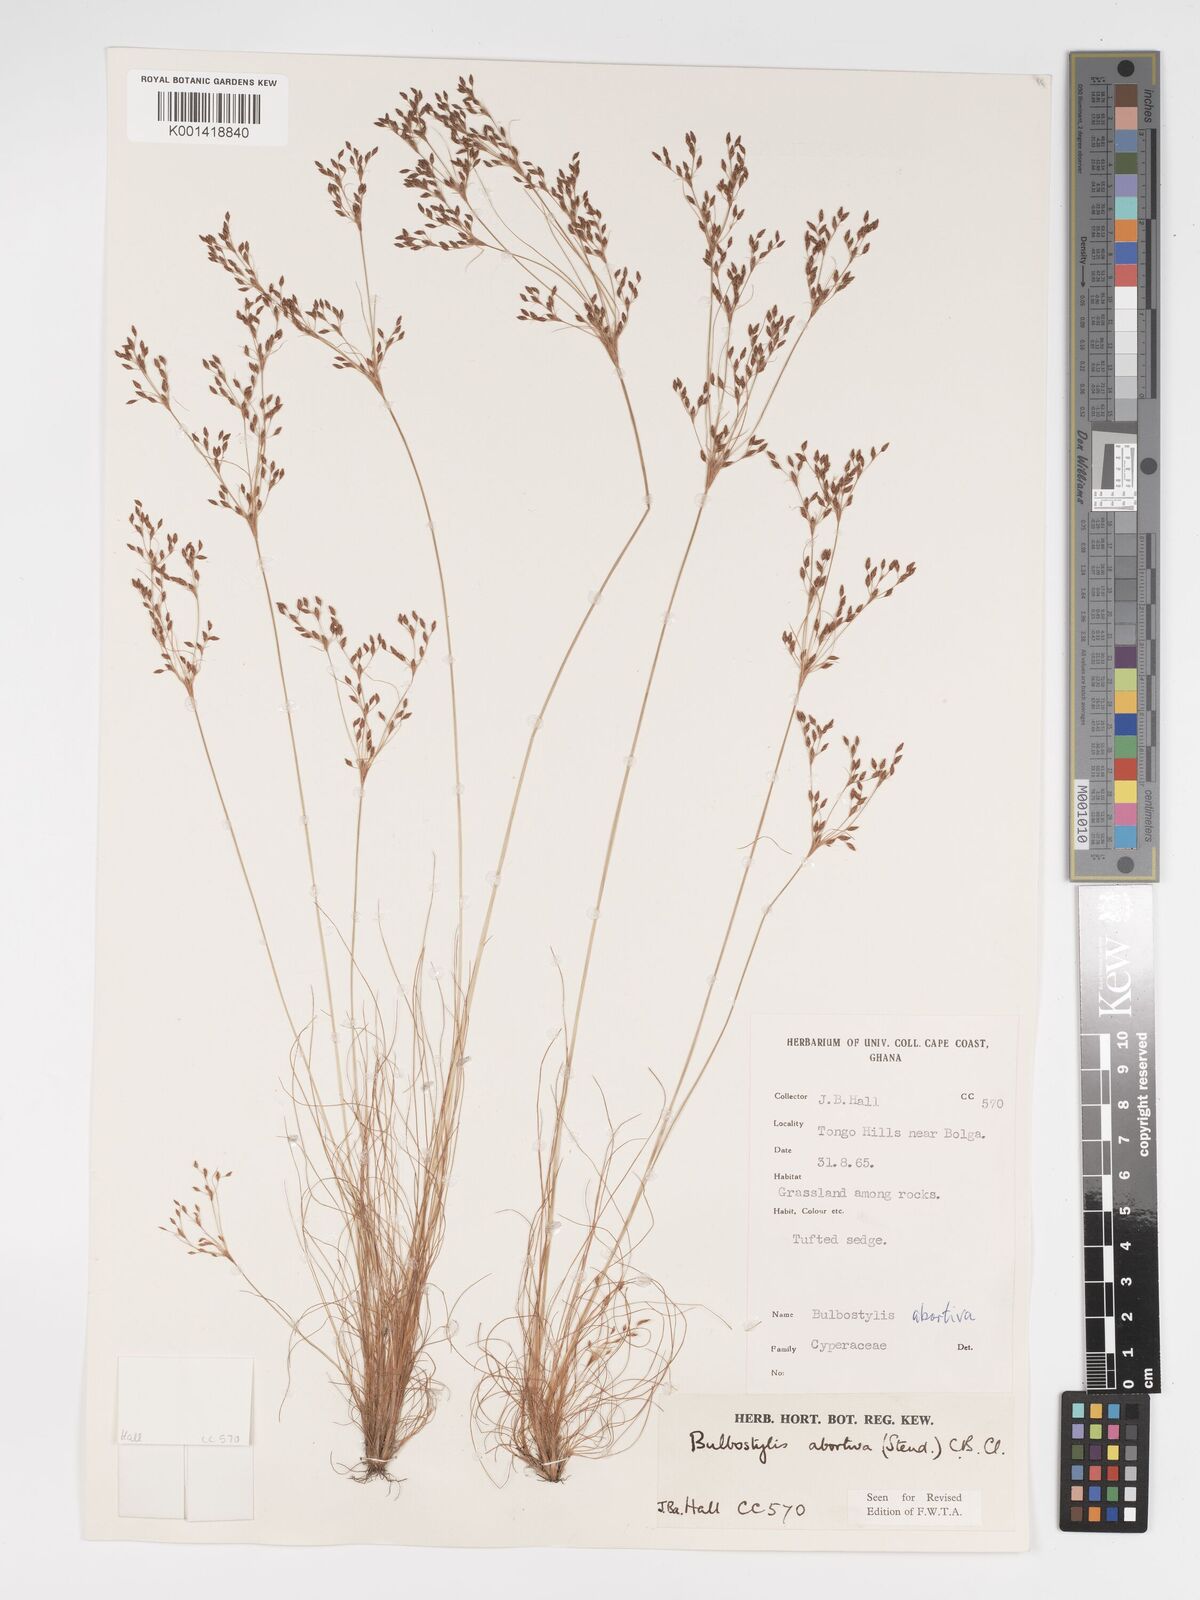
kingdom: Plantae
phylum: Tracheophyta
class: Liliopsida
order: Poales
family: Cyperaceae
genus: Bulbostylis
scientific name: Bulbostylis abortiva
